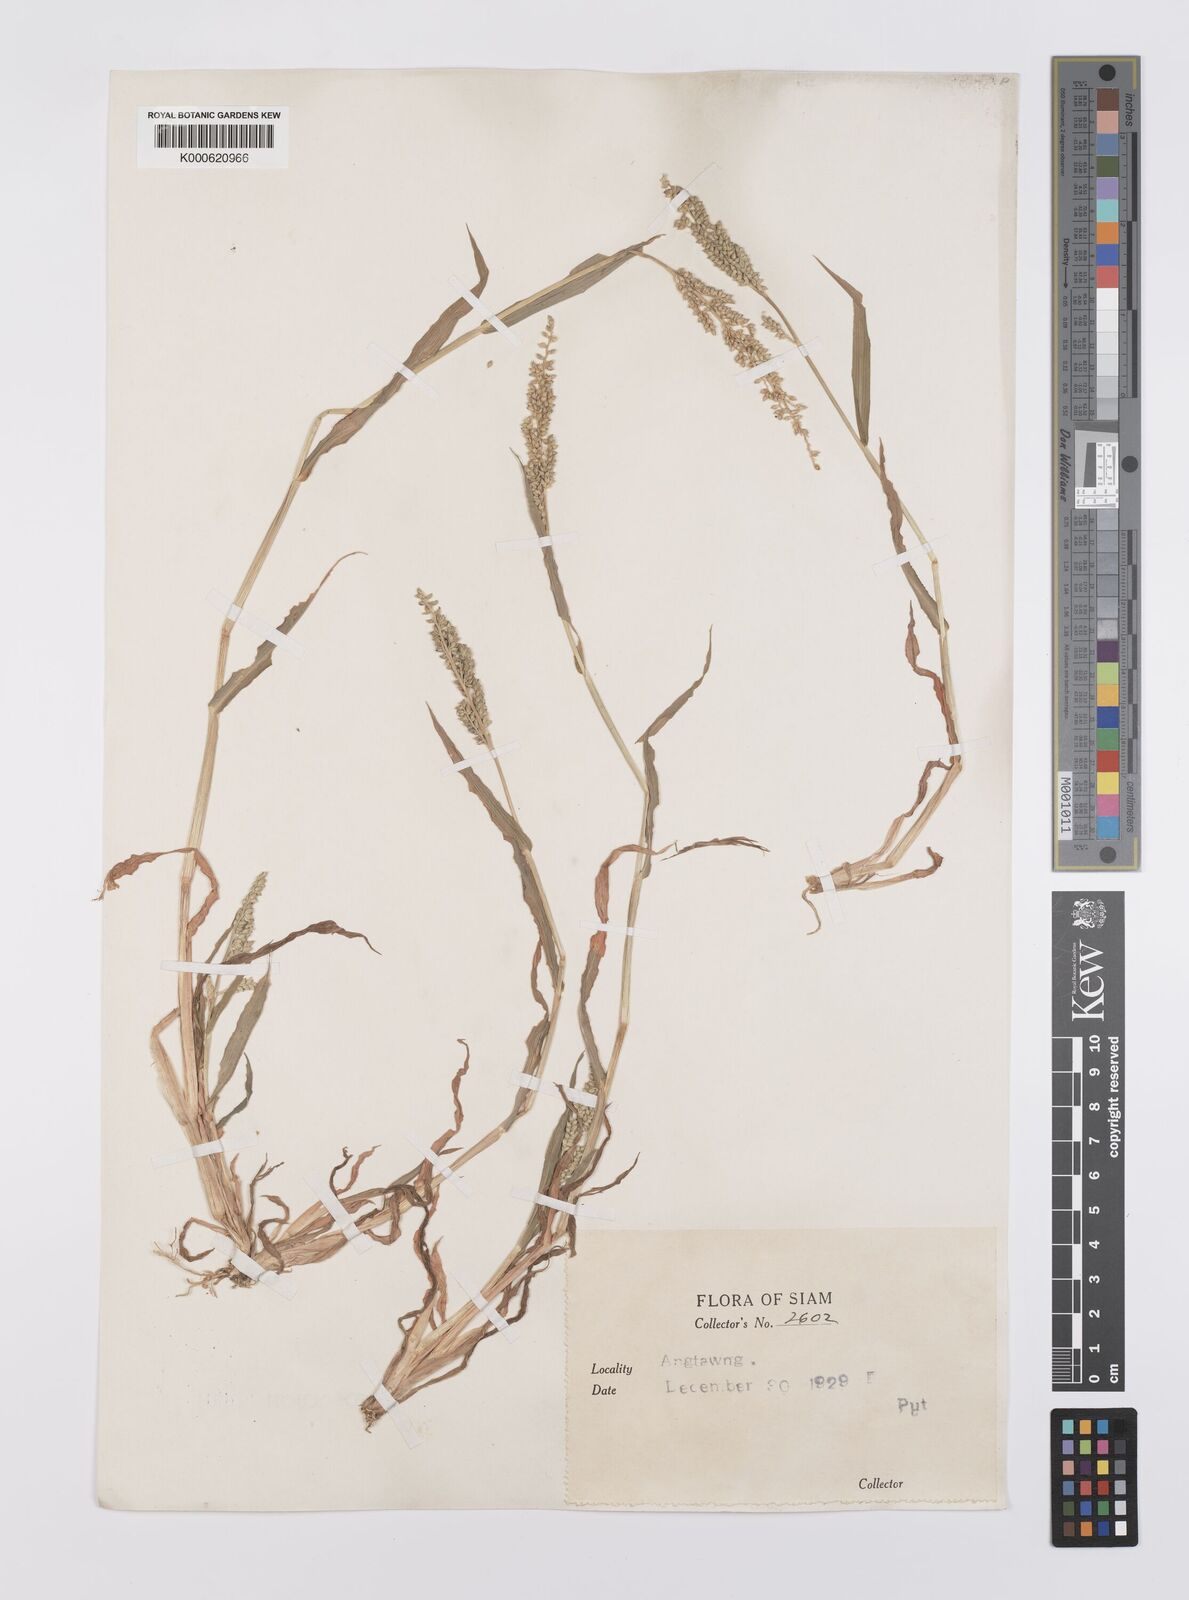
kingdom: Plantae
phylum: Tracheophyta
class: Liliopsida
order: Poales
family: Poaceae
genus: Echinochloa
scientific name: Echinochloa colonum
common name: Jungle rice
